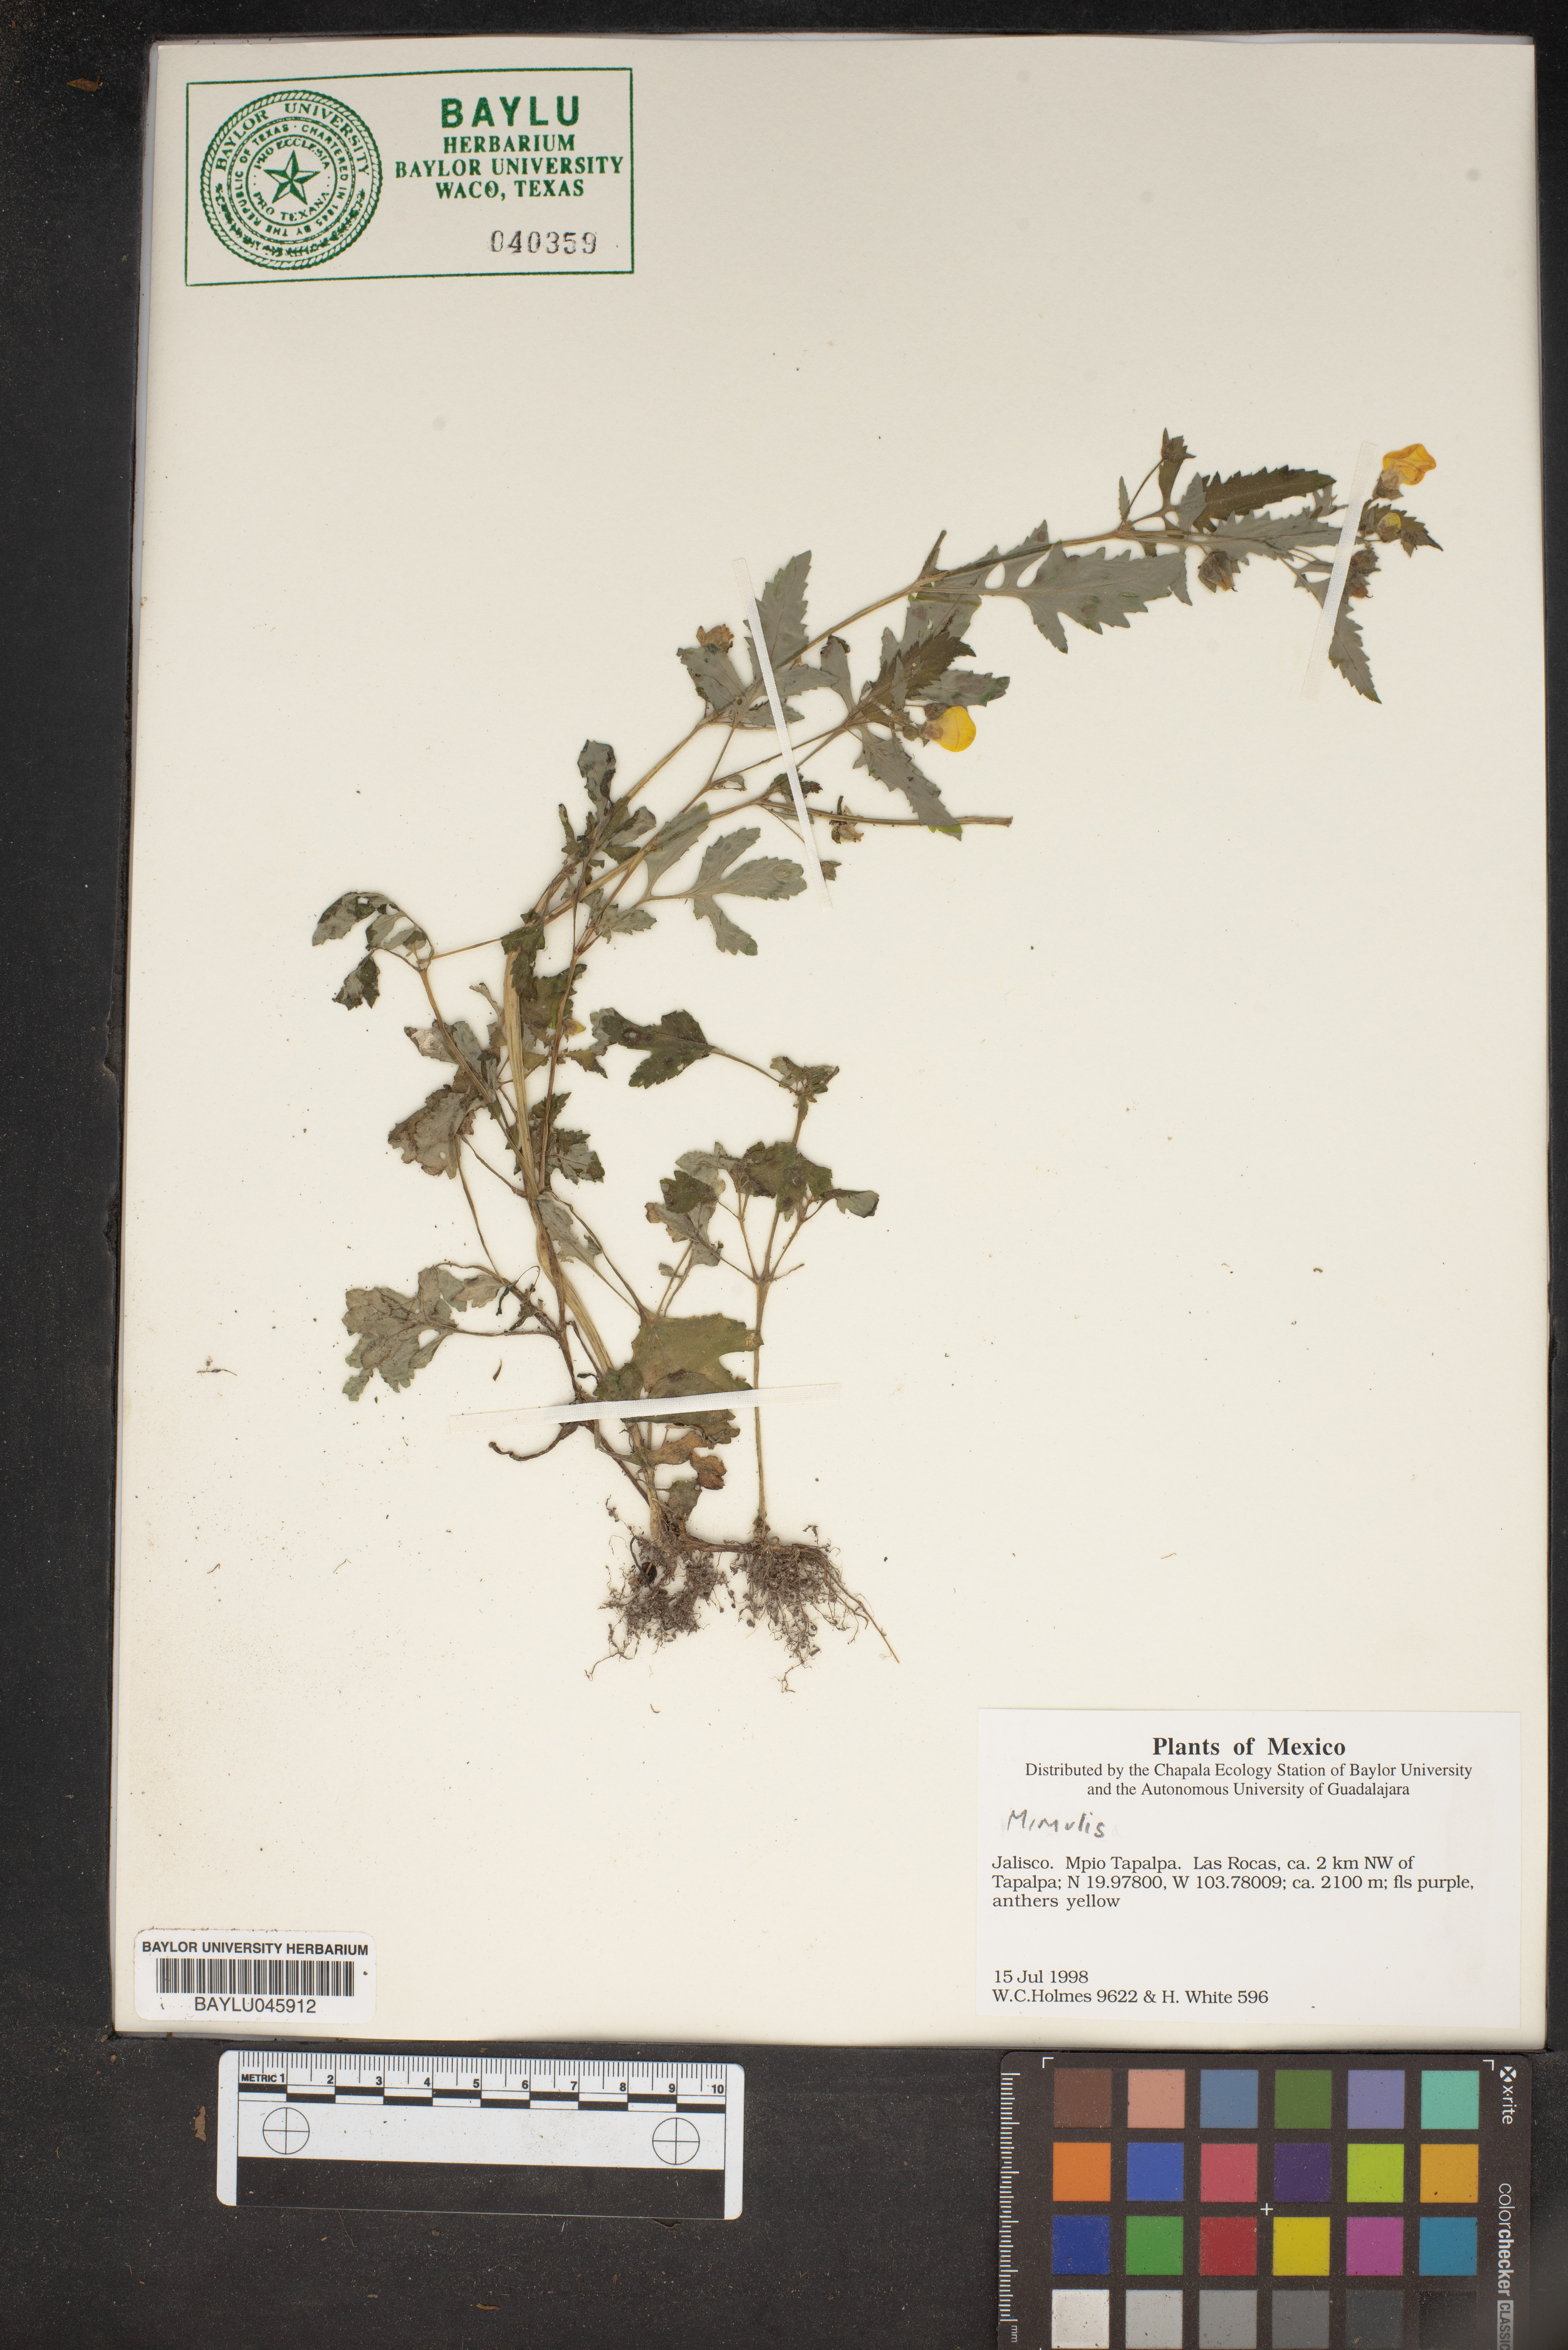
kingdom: Plantae
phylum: Tracheophyta
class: Magnoliopsida
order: Lamiales
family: Phrymaceae
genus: Mimulus
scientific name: Mimulus
